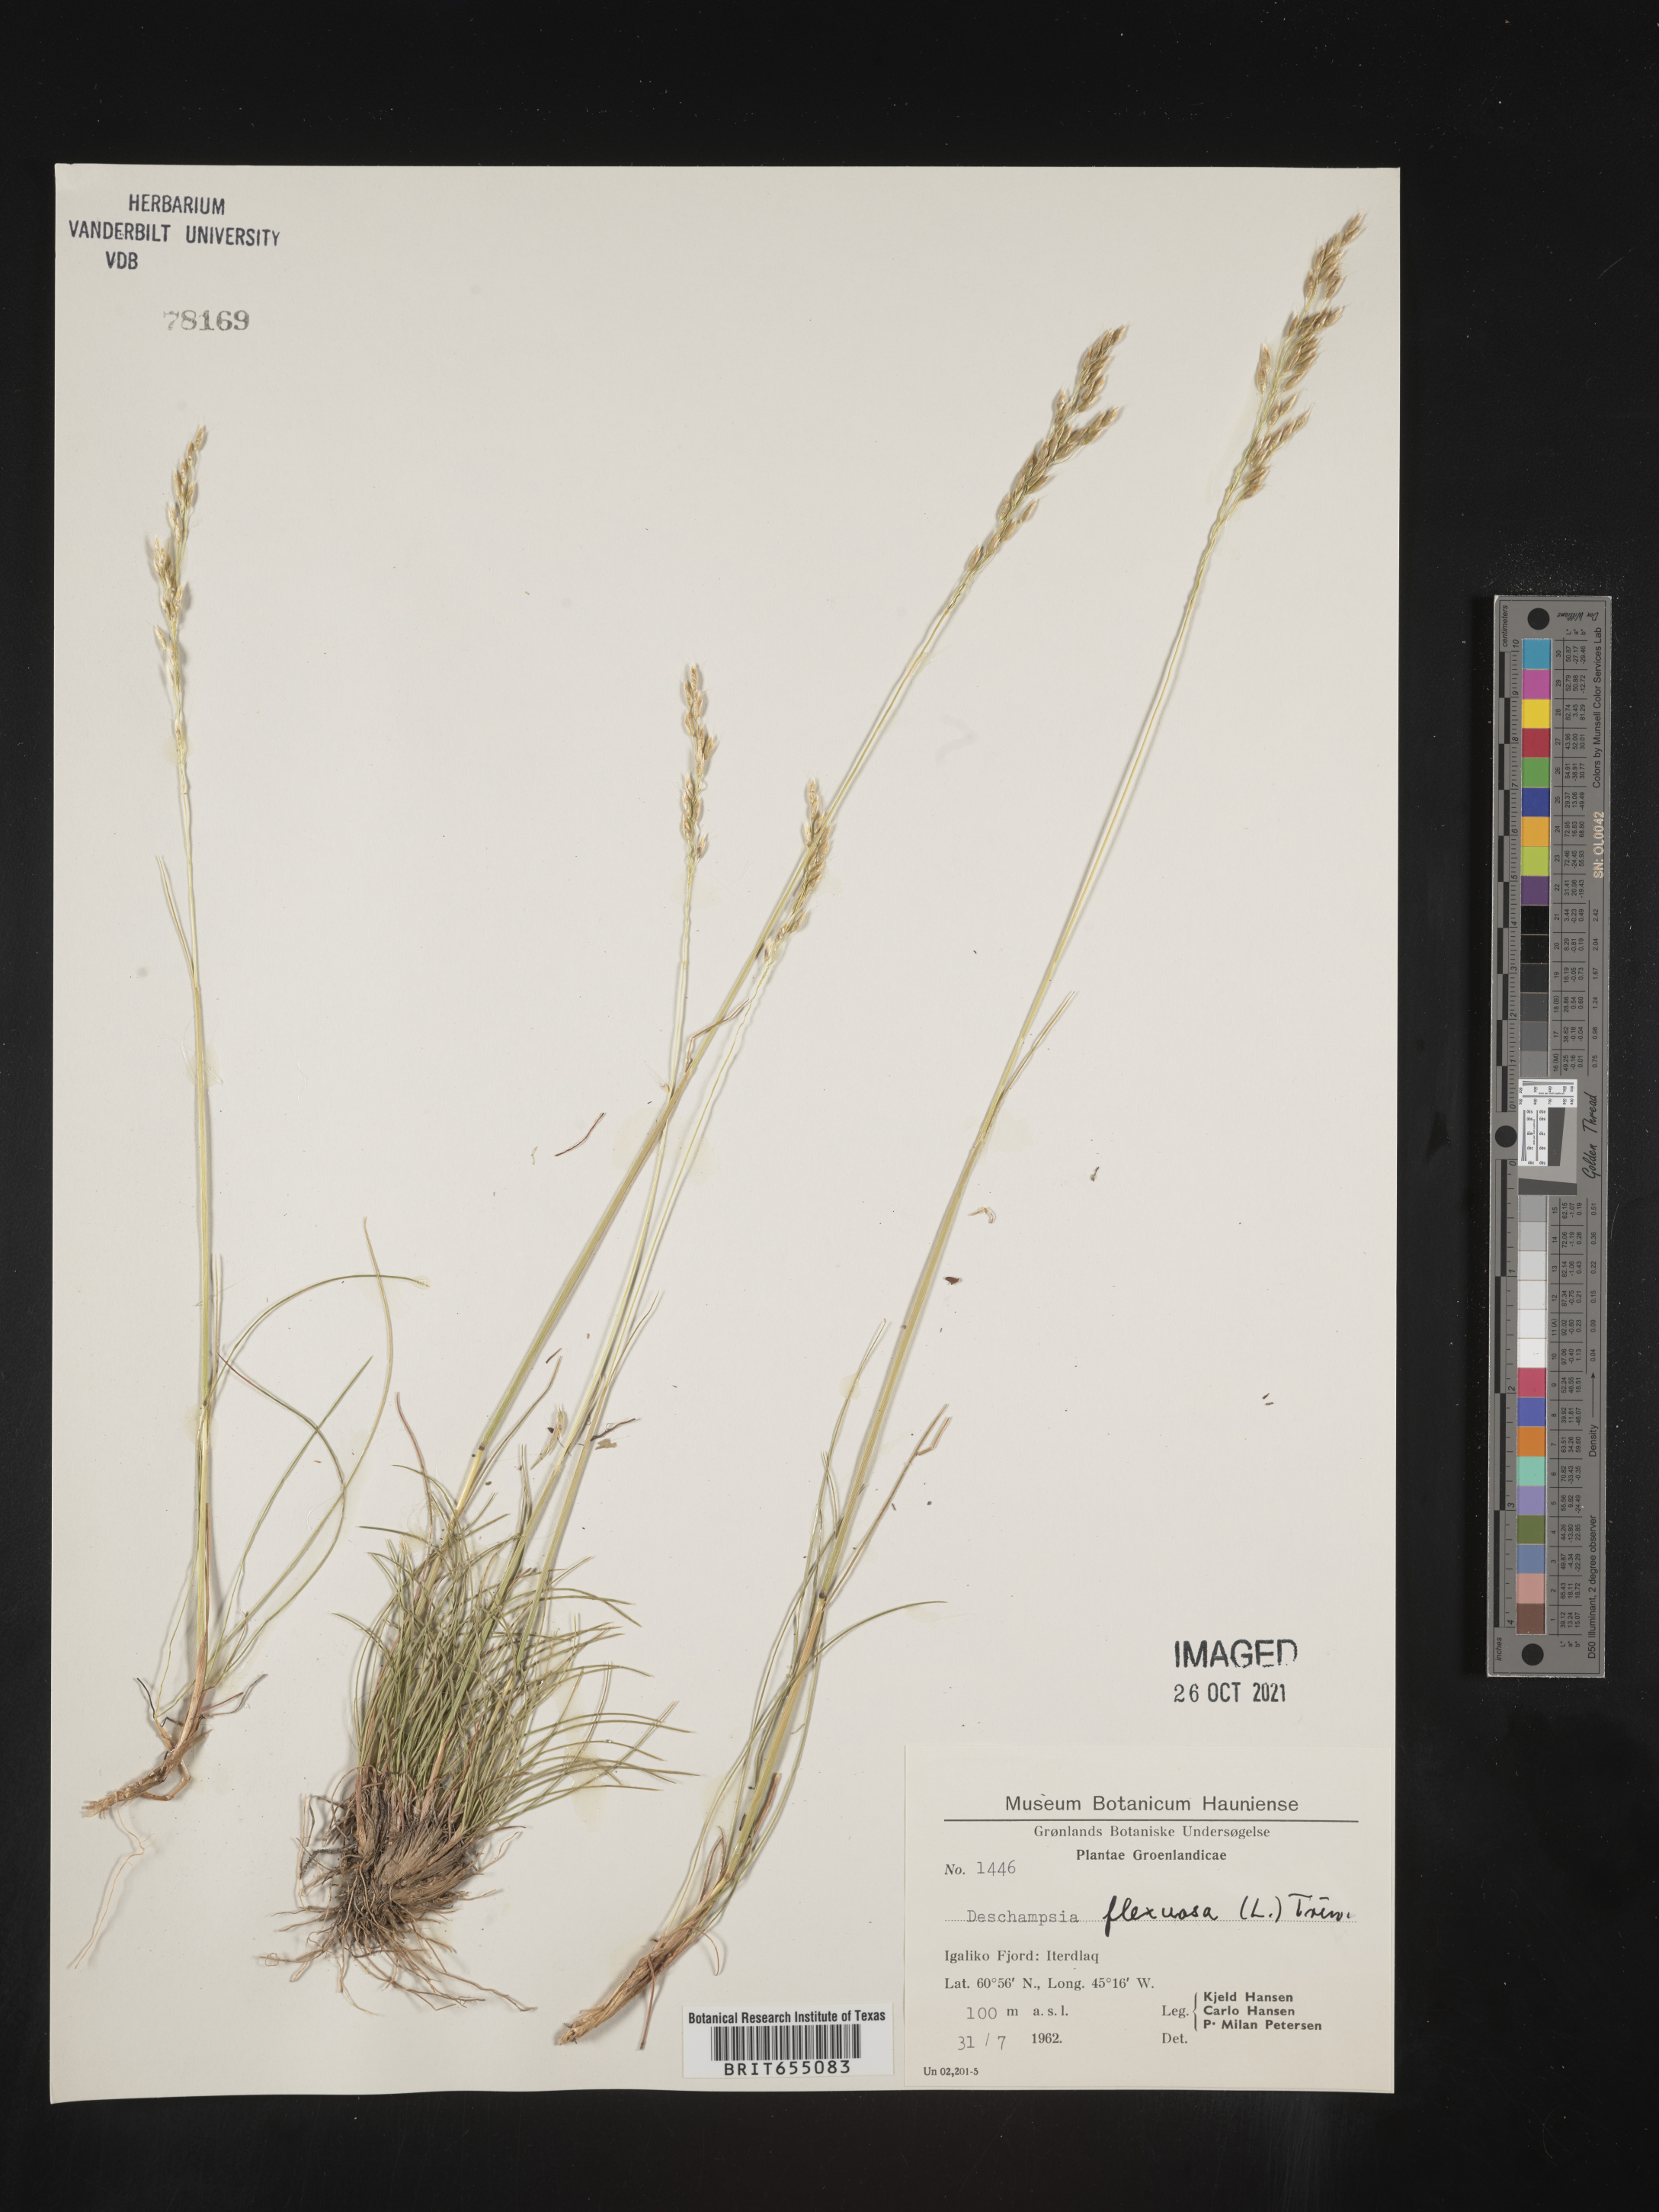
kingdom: Plantae
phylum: Tracheophyta
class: Liliopsida
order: Poales
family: Poaceae
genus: Deschampsia
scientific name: Deschampsia
